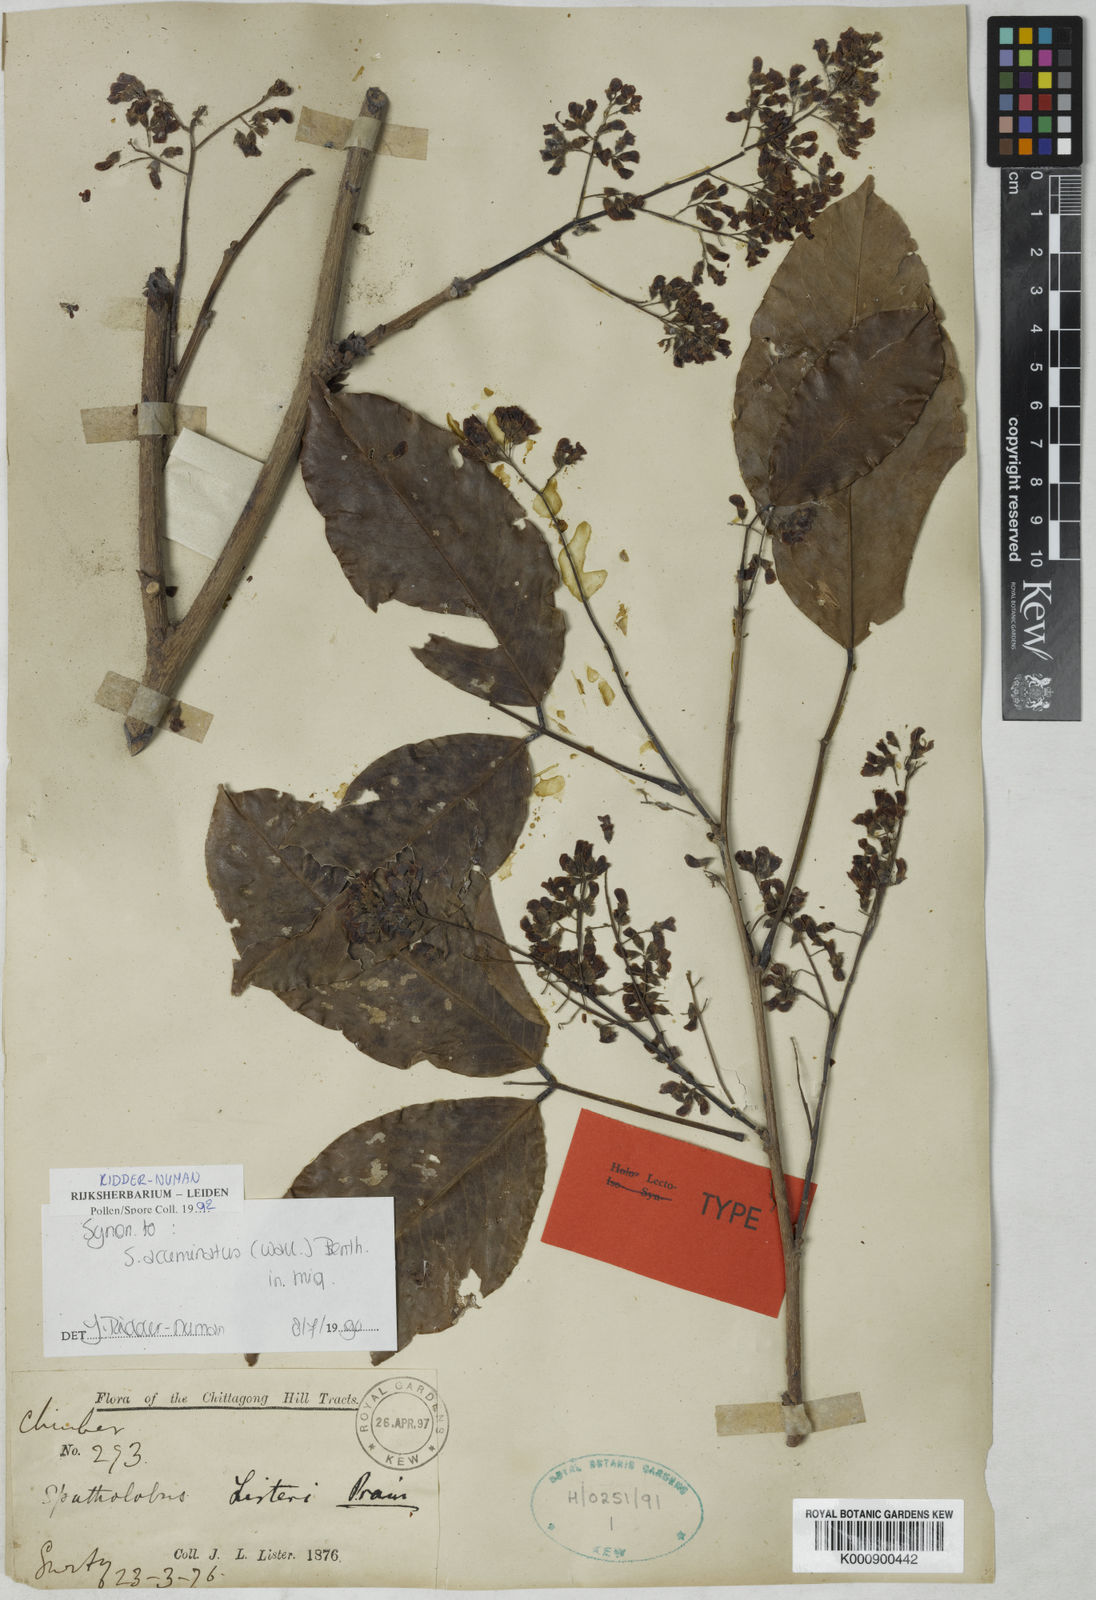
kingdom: Plantae
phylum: Tracheophyta
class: Magnoliopsida
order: Fabales
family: Fabaceae
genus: Spatholobus
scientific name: Spatholobus acuminatus
